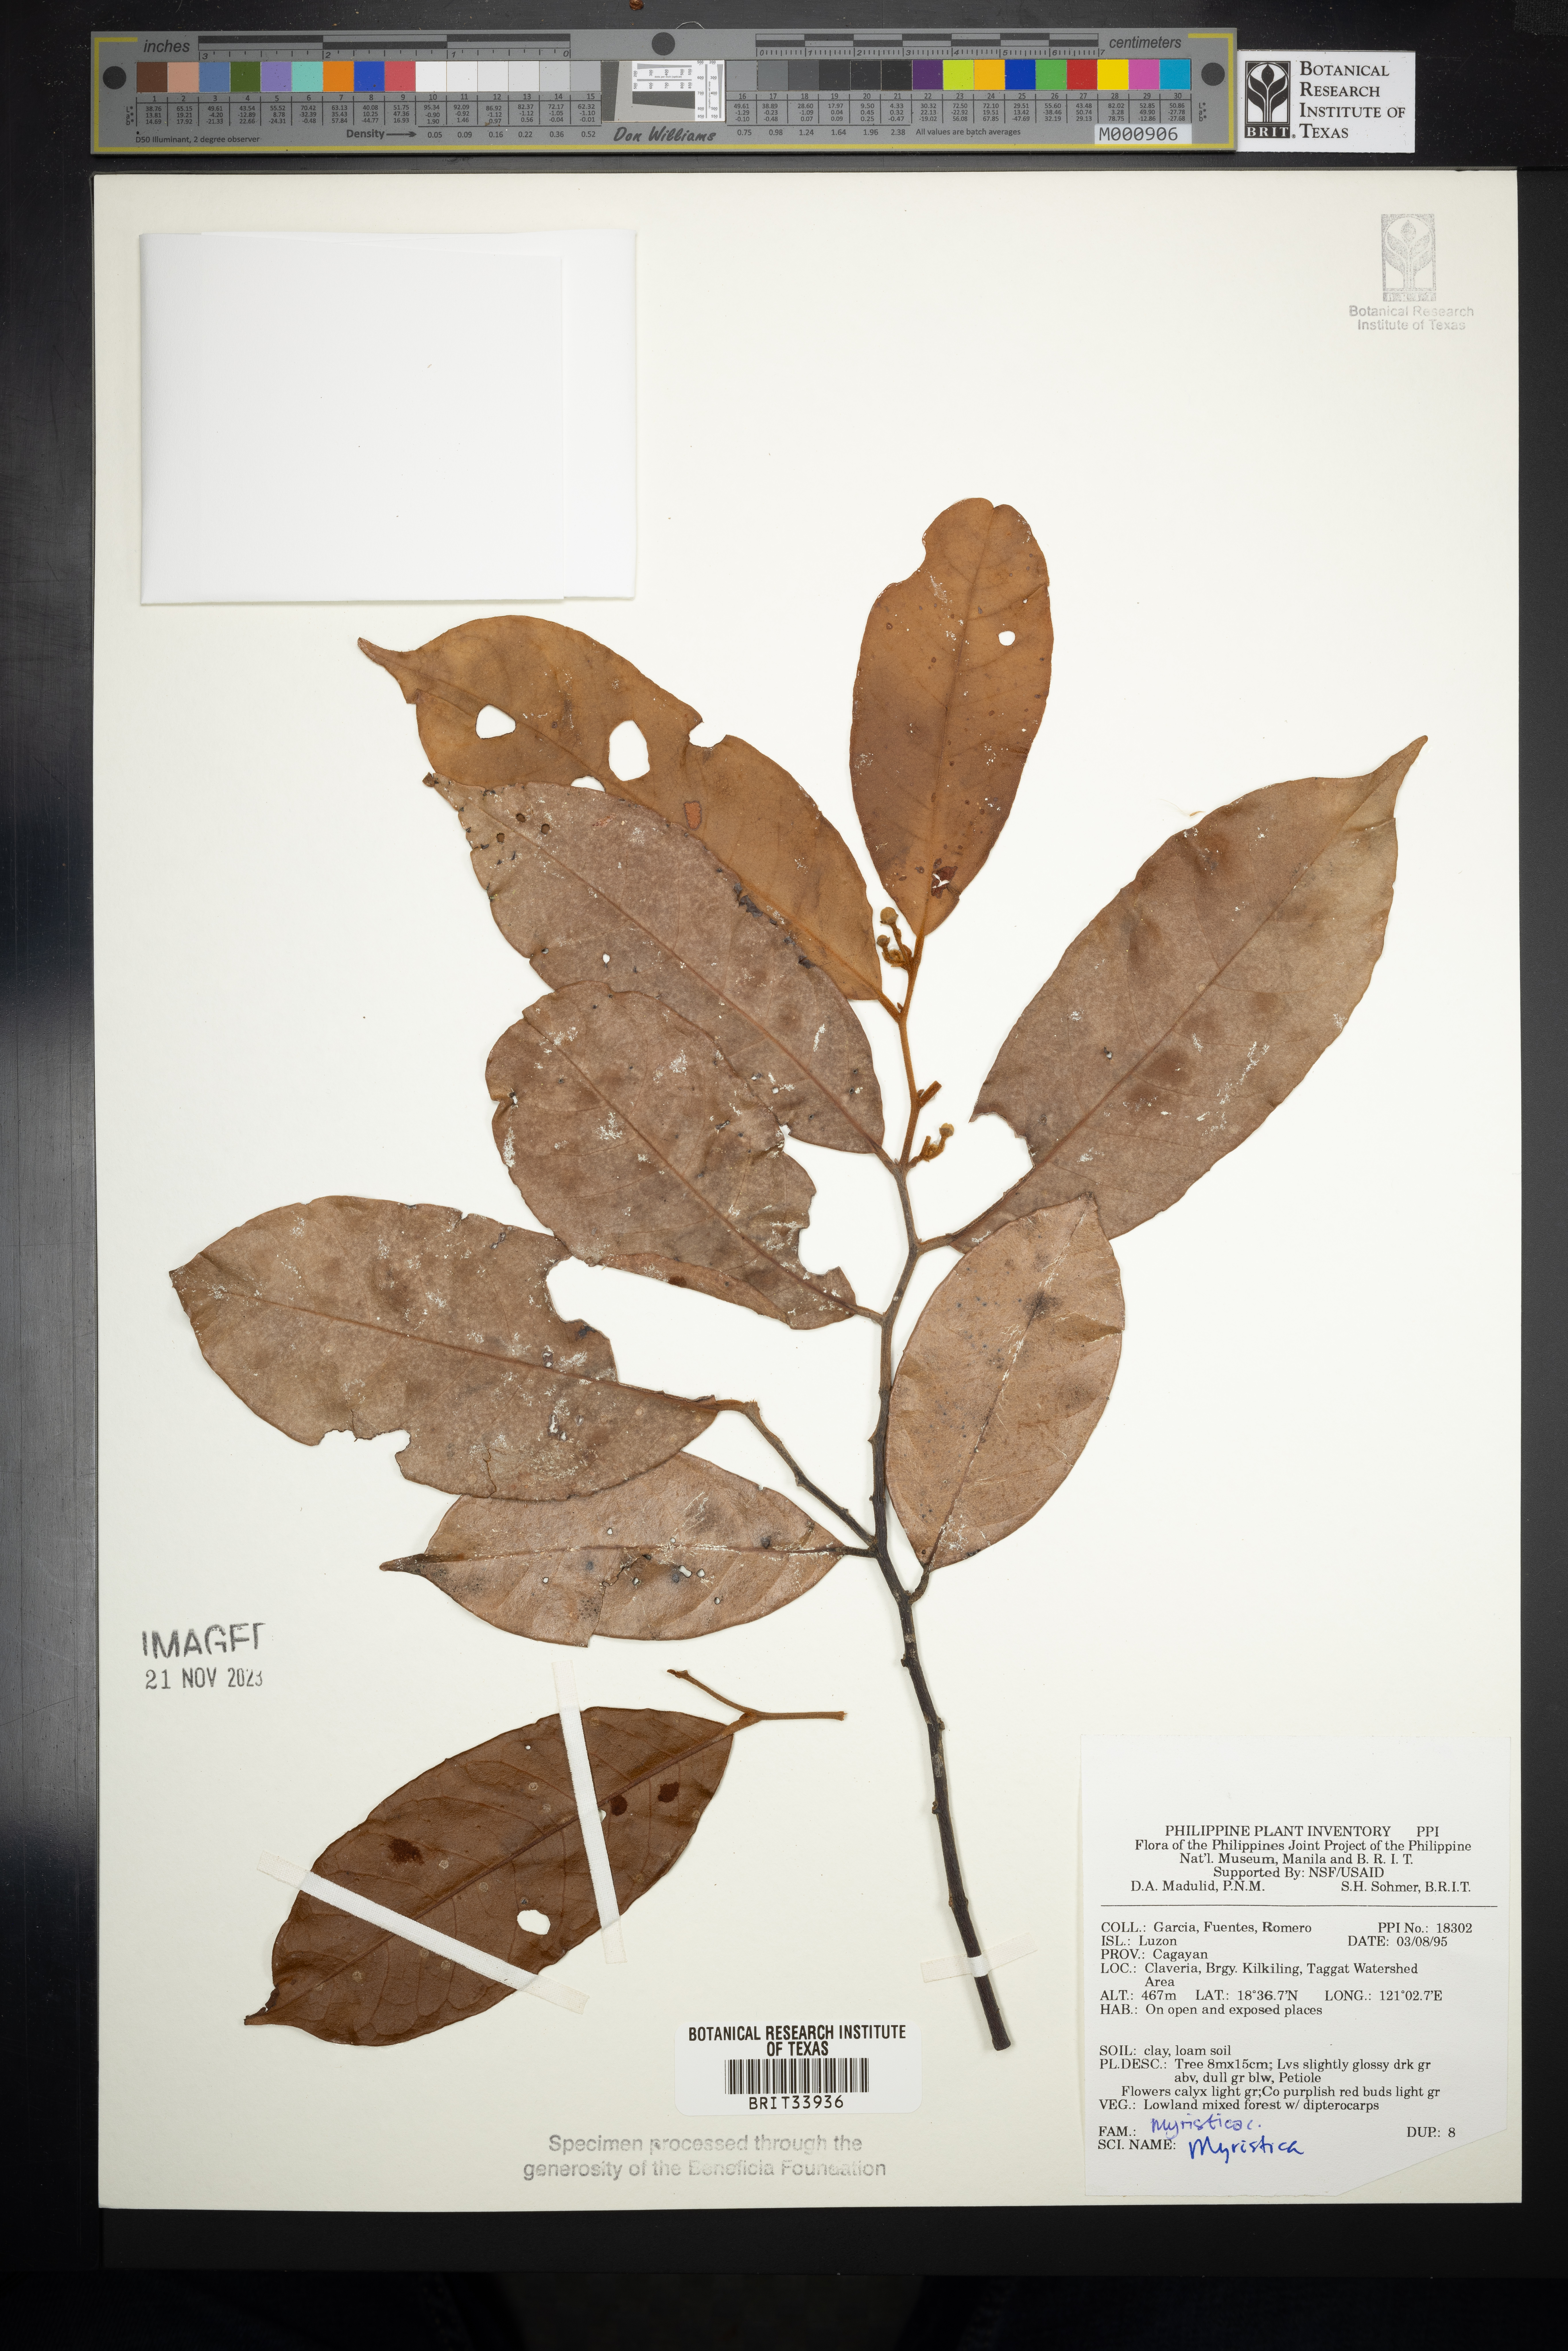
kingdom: Plantae
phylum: Tracheophyta
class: Magnoliopsida
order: Magnoliales
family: Myristicaceae
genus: Myristica
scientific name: Myristica
